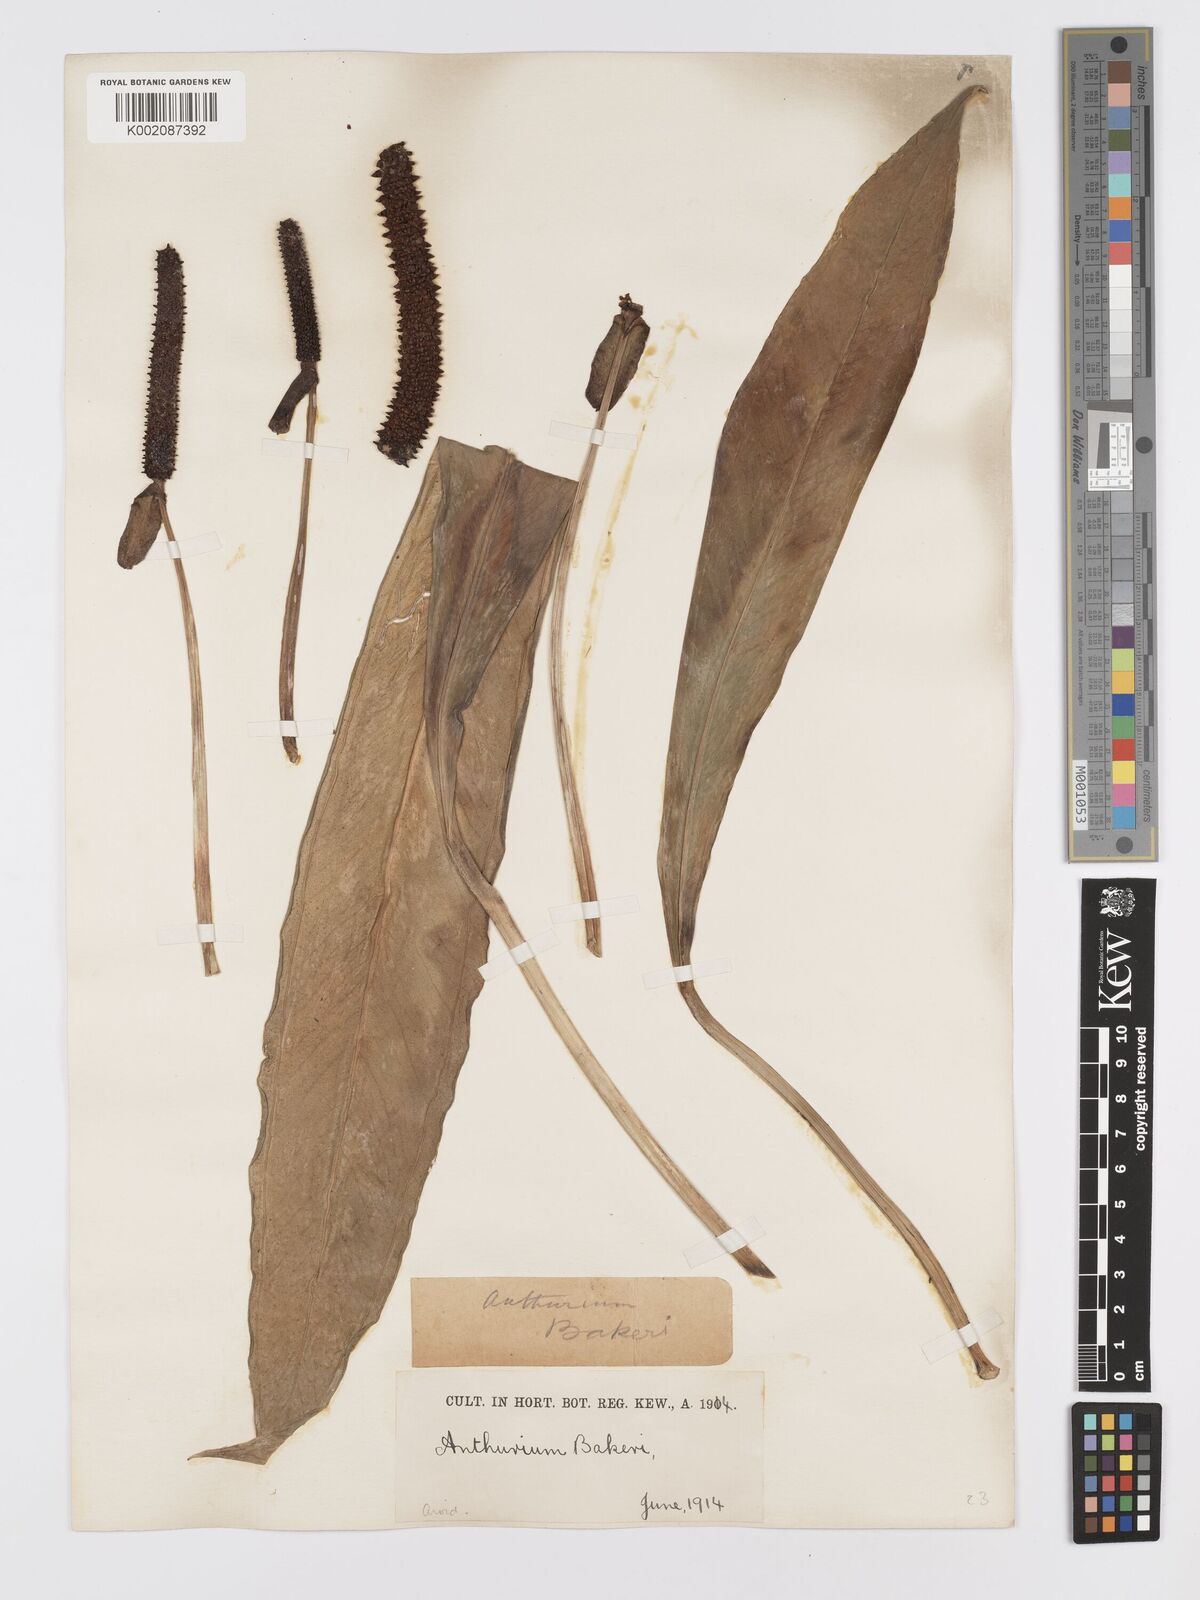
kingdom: Plantae
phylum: Tracheophyta
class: Liliopsida
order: Alismatales
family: Araceae
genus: Anthurium
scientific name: Anthurium bakeri
